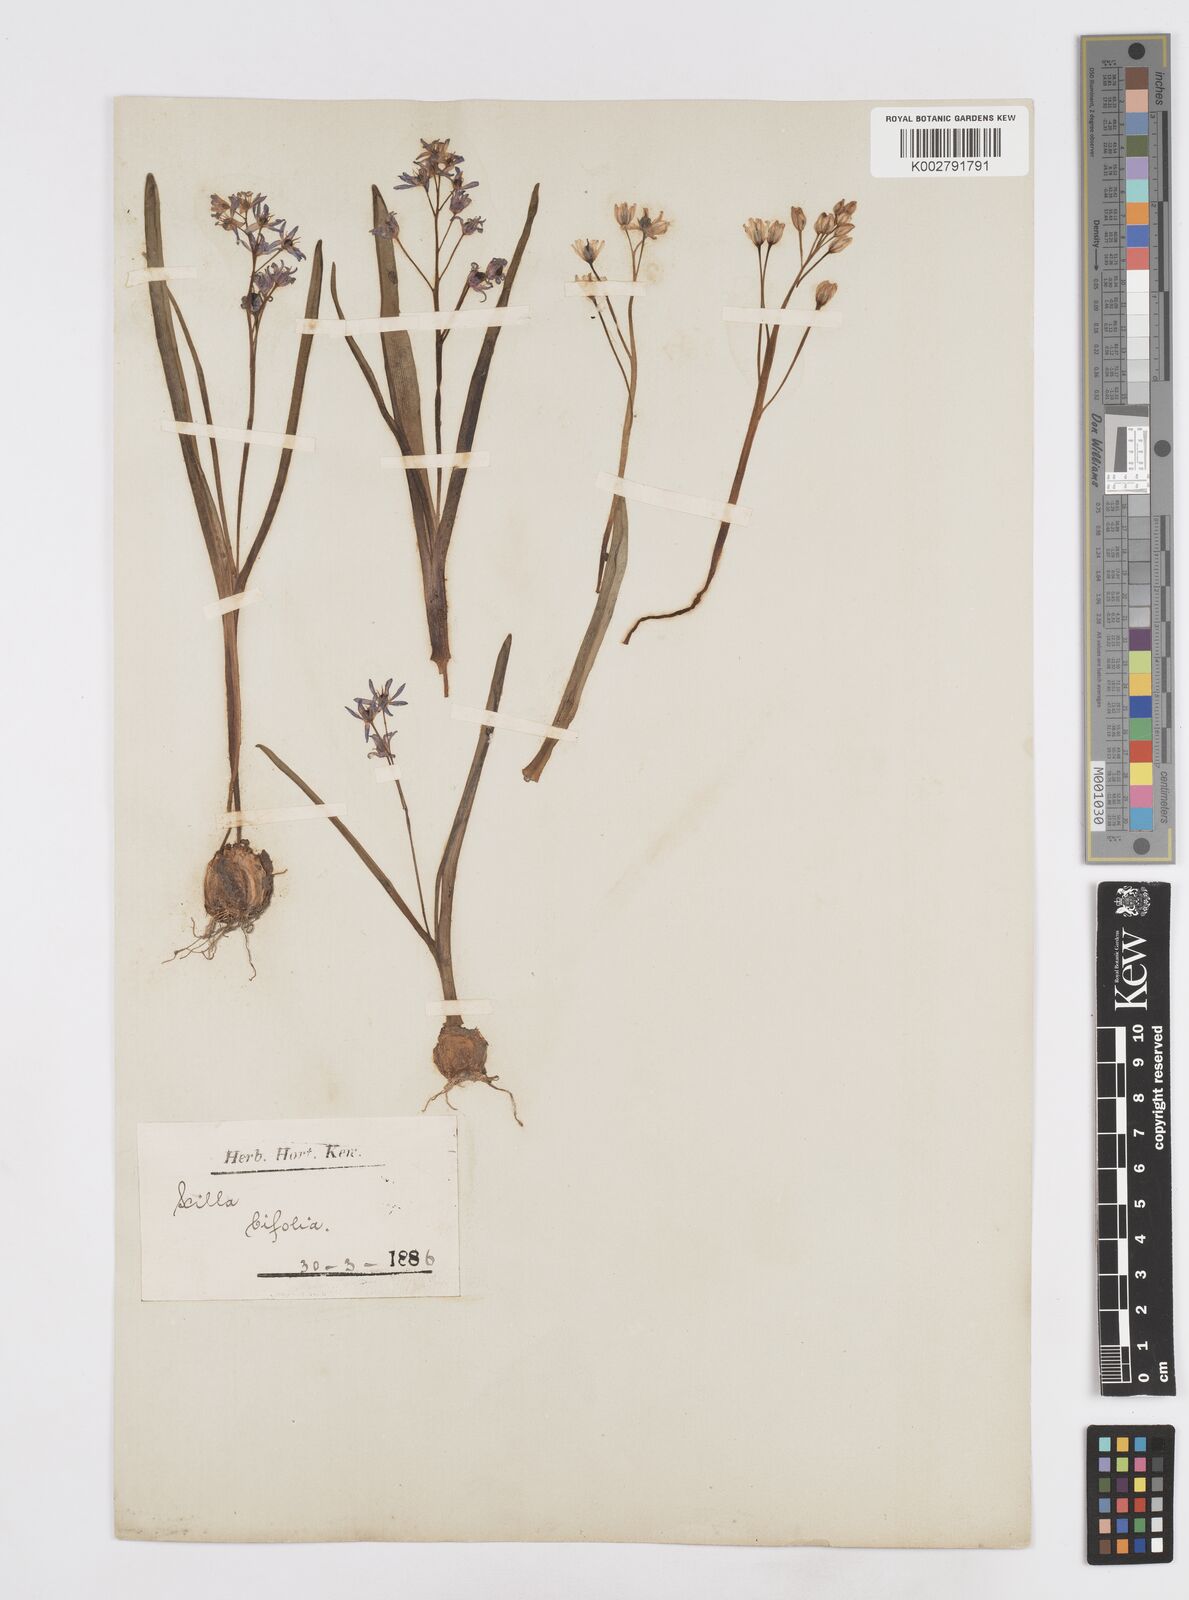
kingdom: Plantae
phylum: Tracheophyta
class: Liliopsida
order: Asparagales
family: Asparagaceae
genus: Scilla
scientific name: Scilla bifolia
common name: Alpine squill
